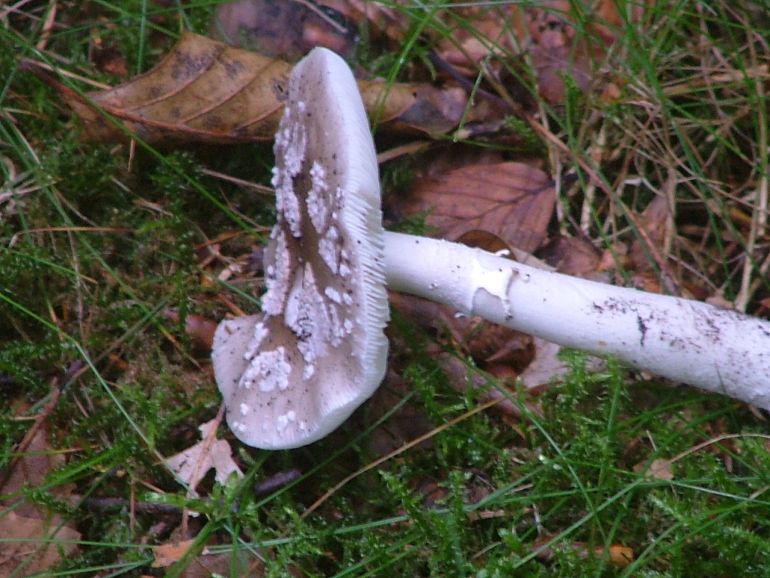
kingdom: Fungi
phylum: Basidiomycota
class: Agaricomycetes
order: Agaricales
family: Amanitaceae
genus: Amanita
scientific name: Amanita
